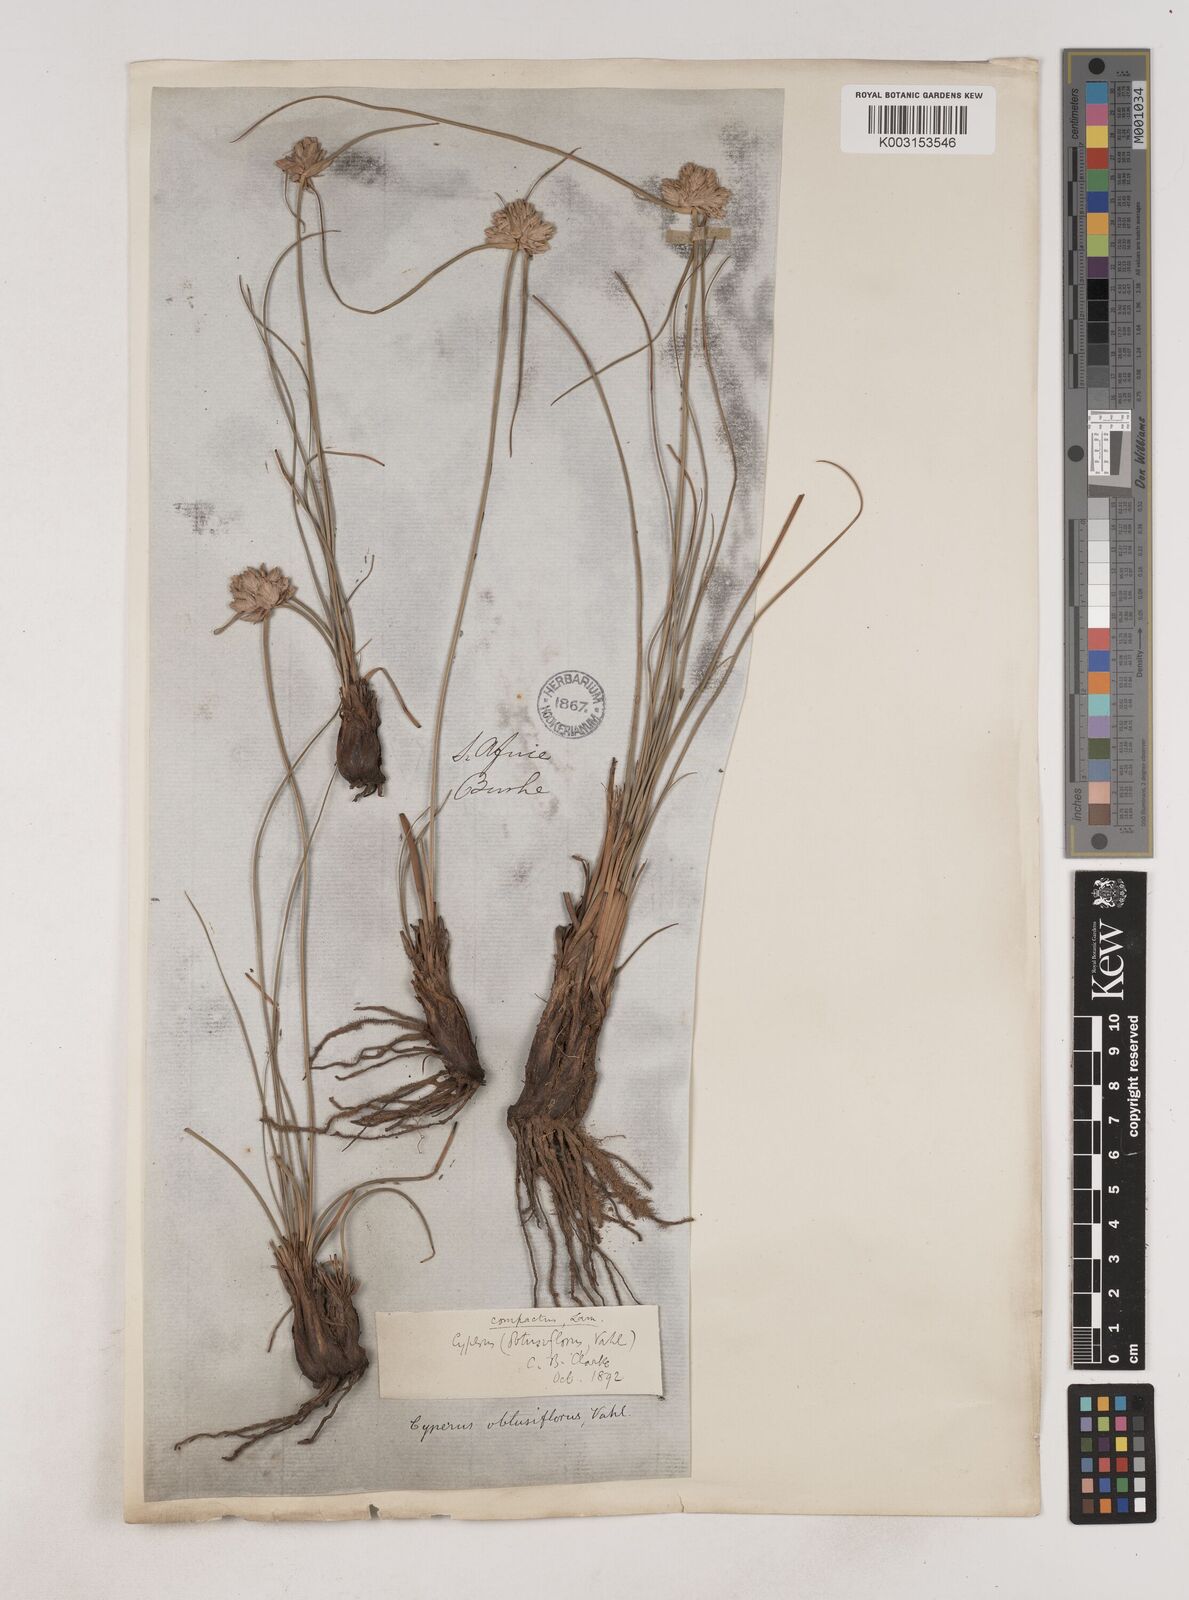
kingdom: Plantae
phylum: Tracheophyta
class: Liliopsida
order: Poales
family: Cyperaceae
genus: Cyperus
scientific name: Cyperus niveus
